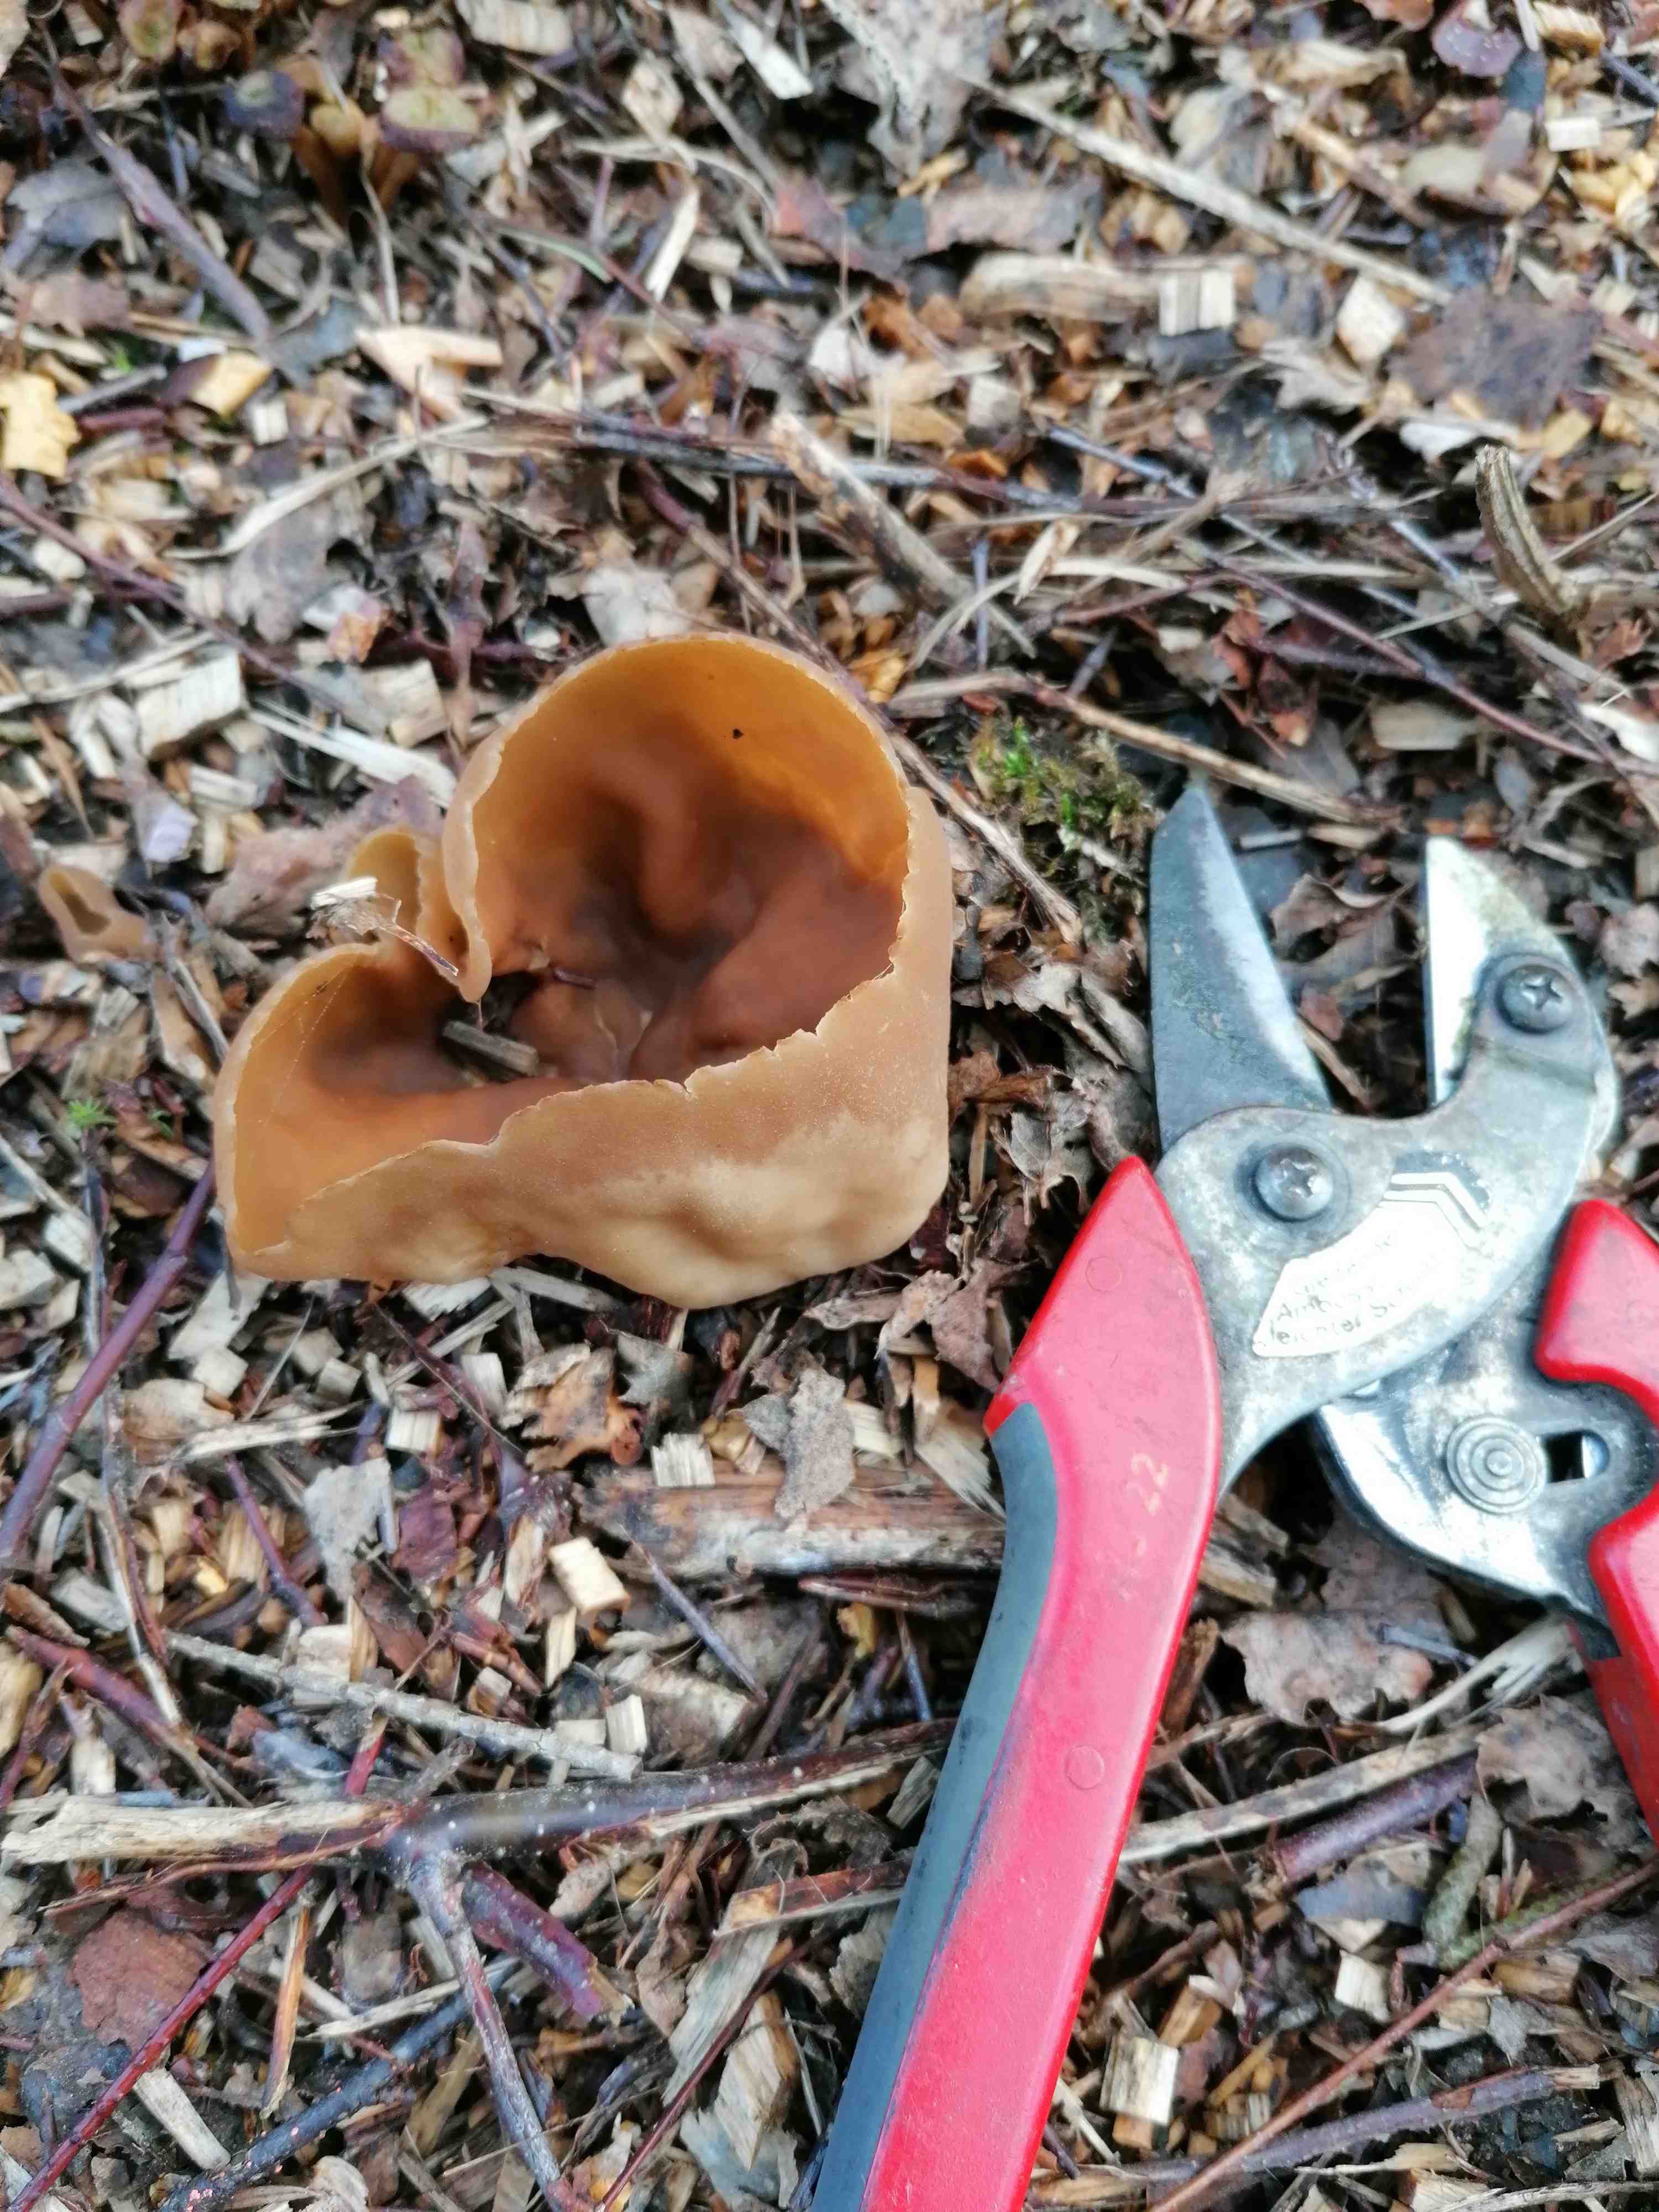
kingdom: Fungi
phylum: Ascomycota
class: Pezizomycetes
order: Pezizales
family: Pezizaceae
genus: Peziza
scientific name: Peziza
